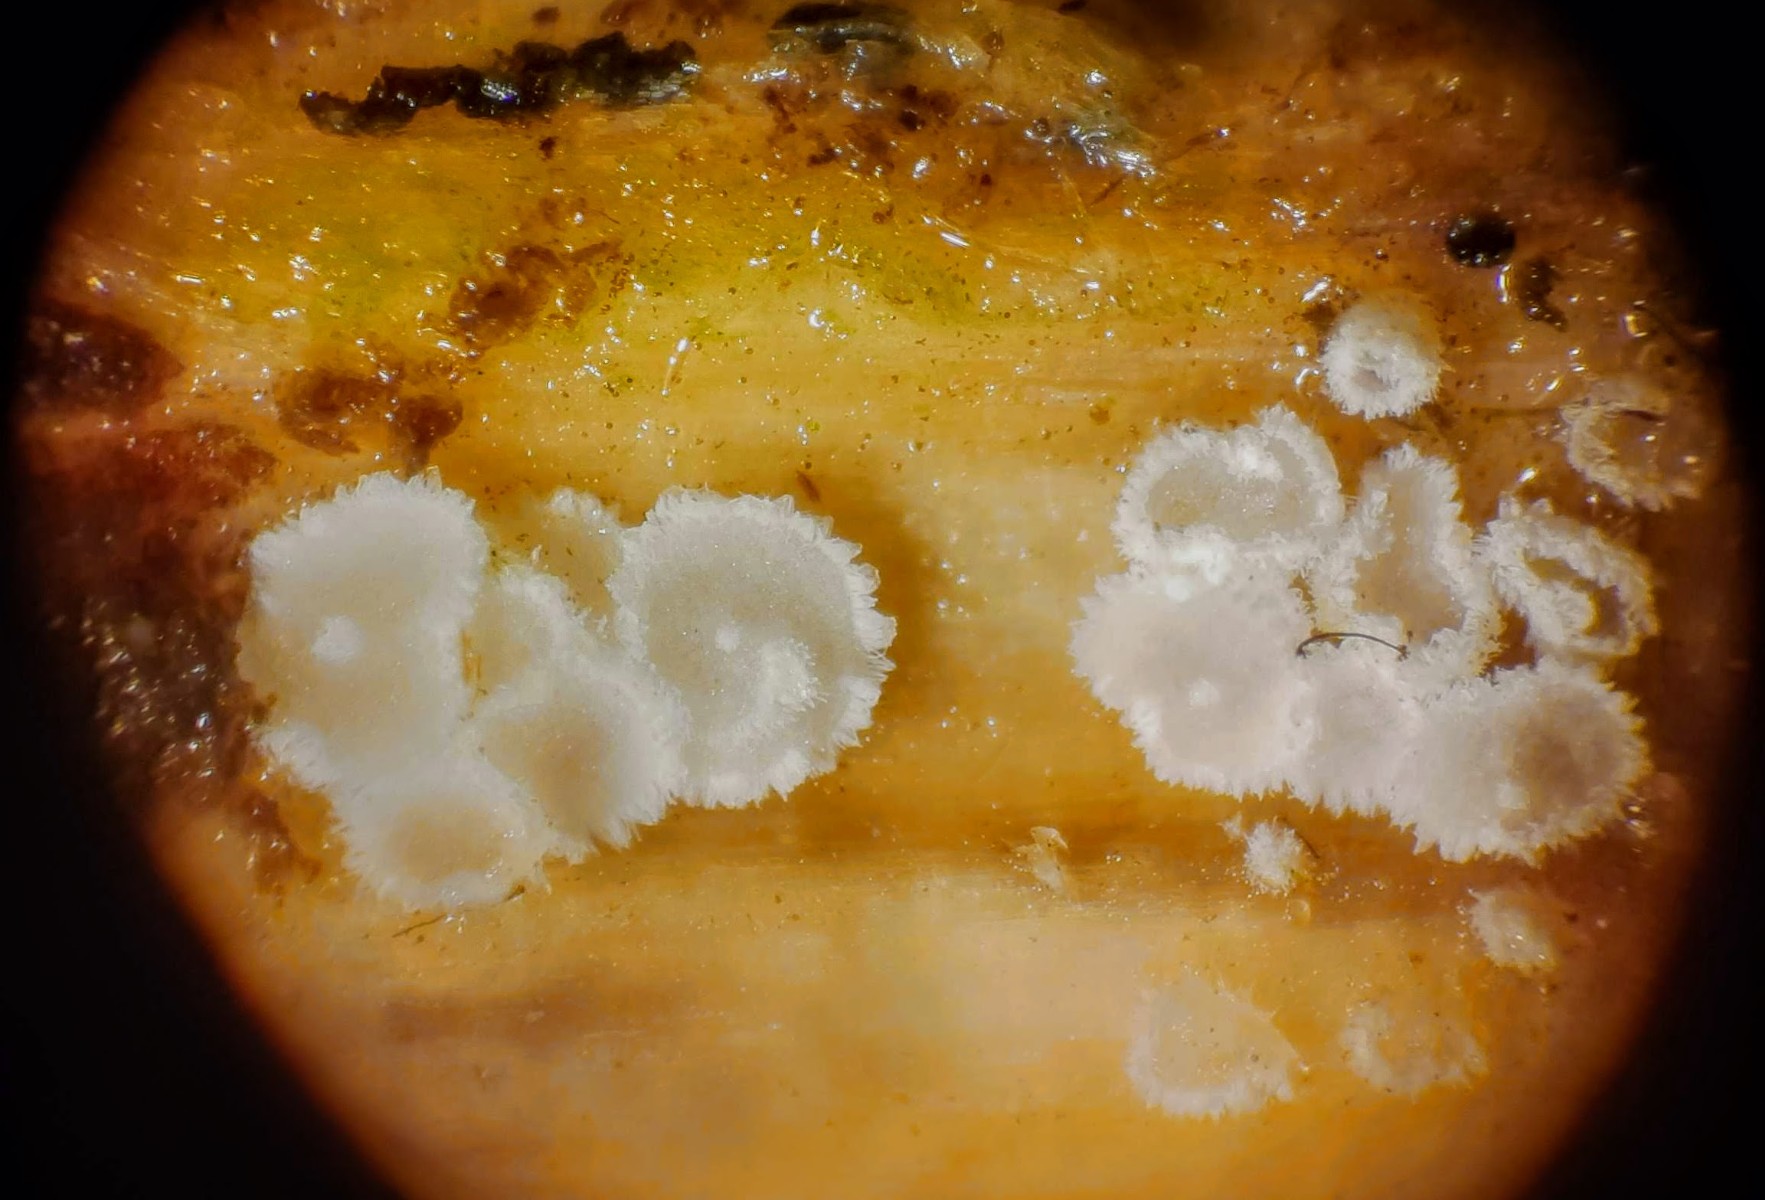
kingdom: Fungi
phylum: Basidiomycota
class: Agaricomycetes
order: Agaricales
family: Niaceae
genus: Lachnella
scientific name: Lachnella villosa
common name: hvid frynserede
